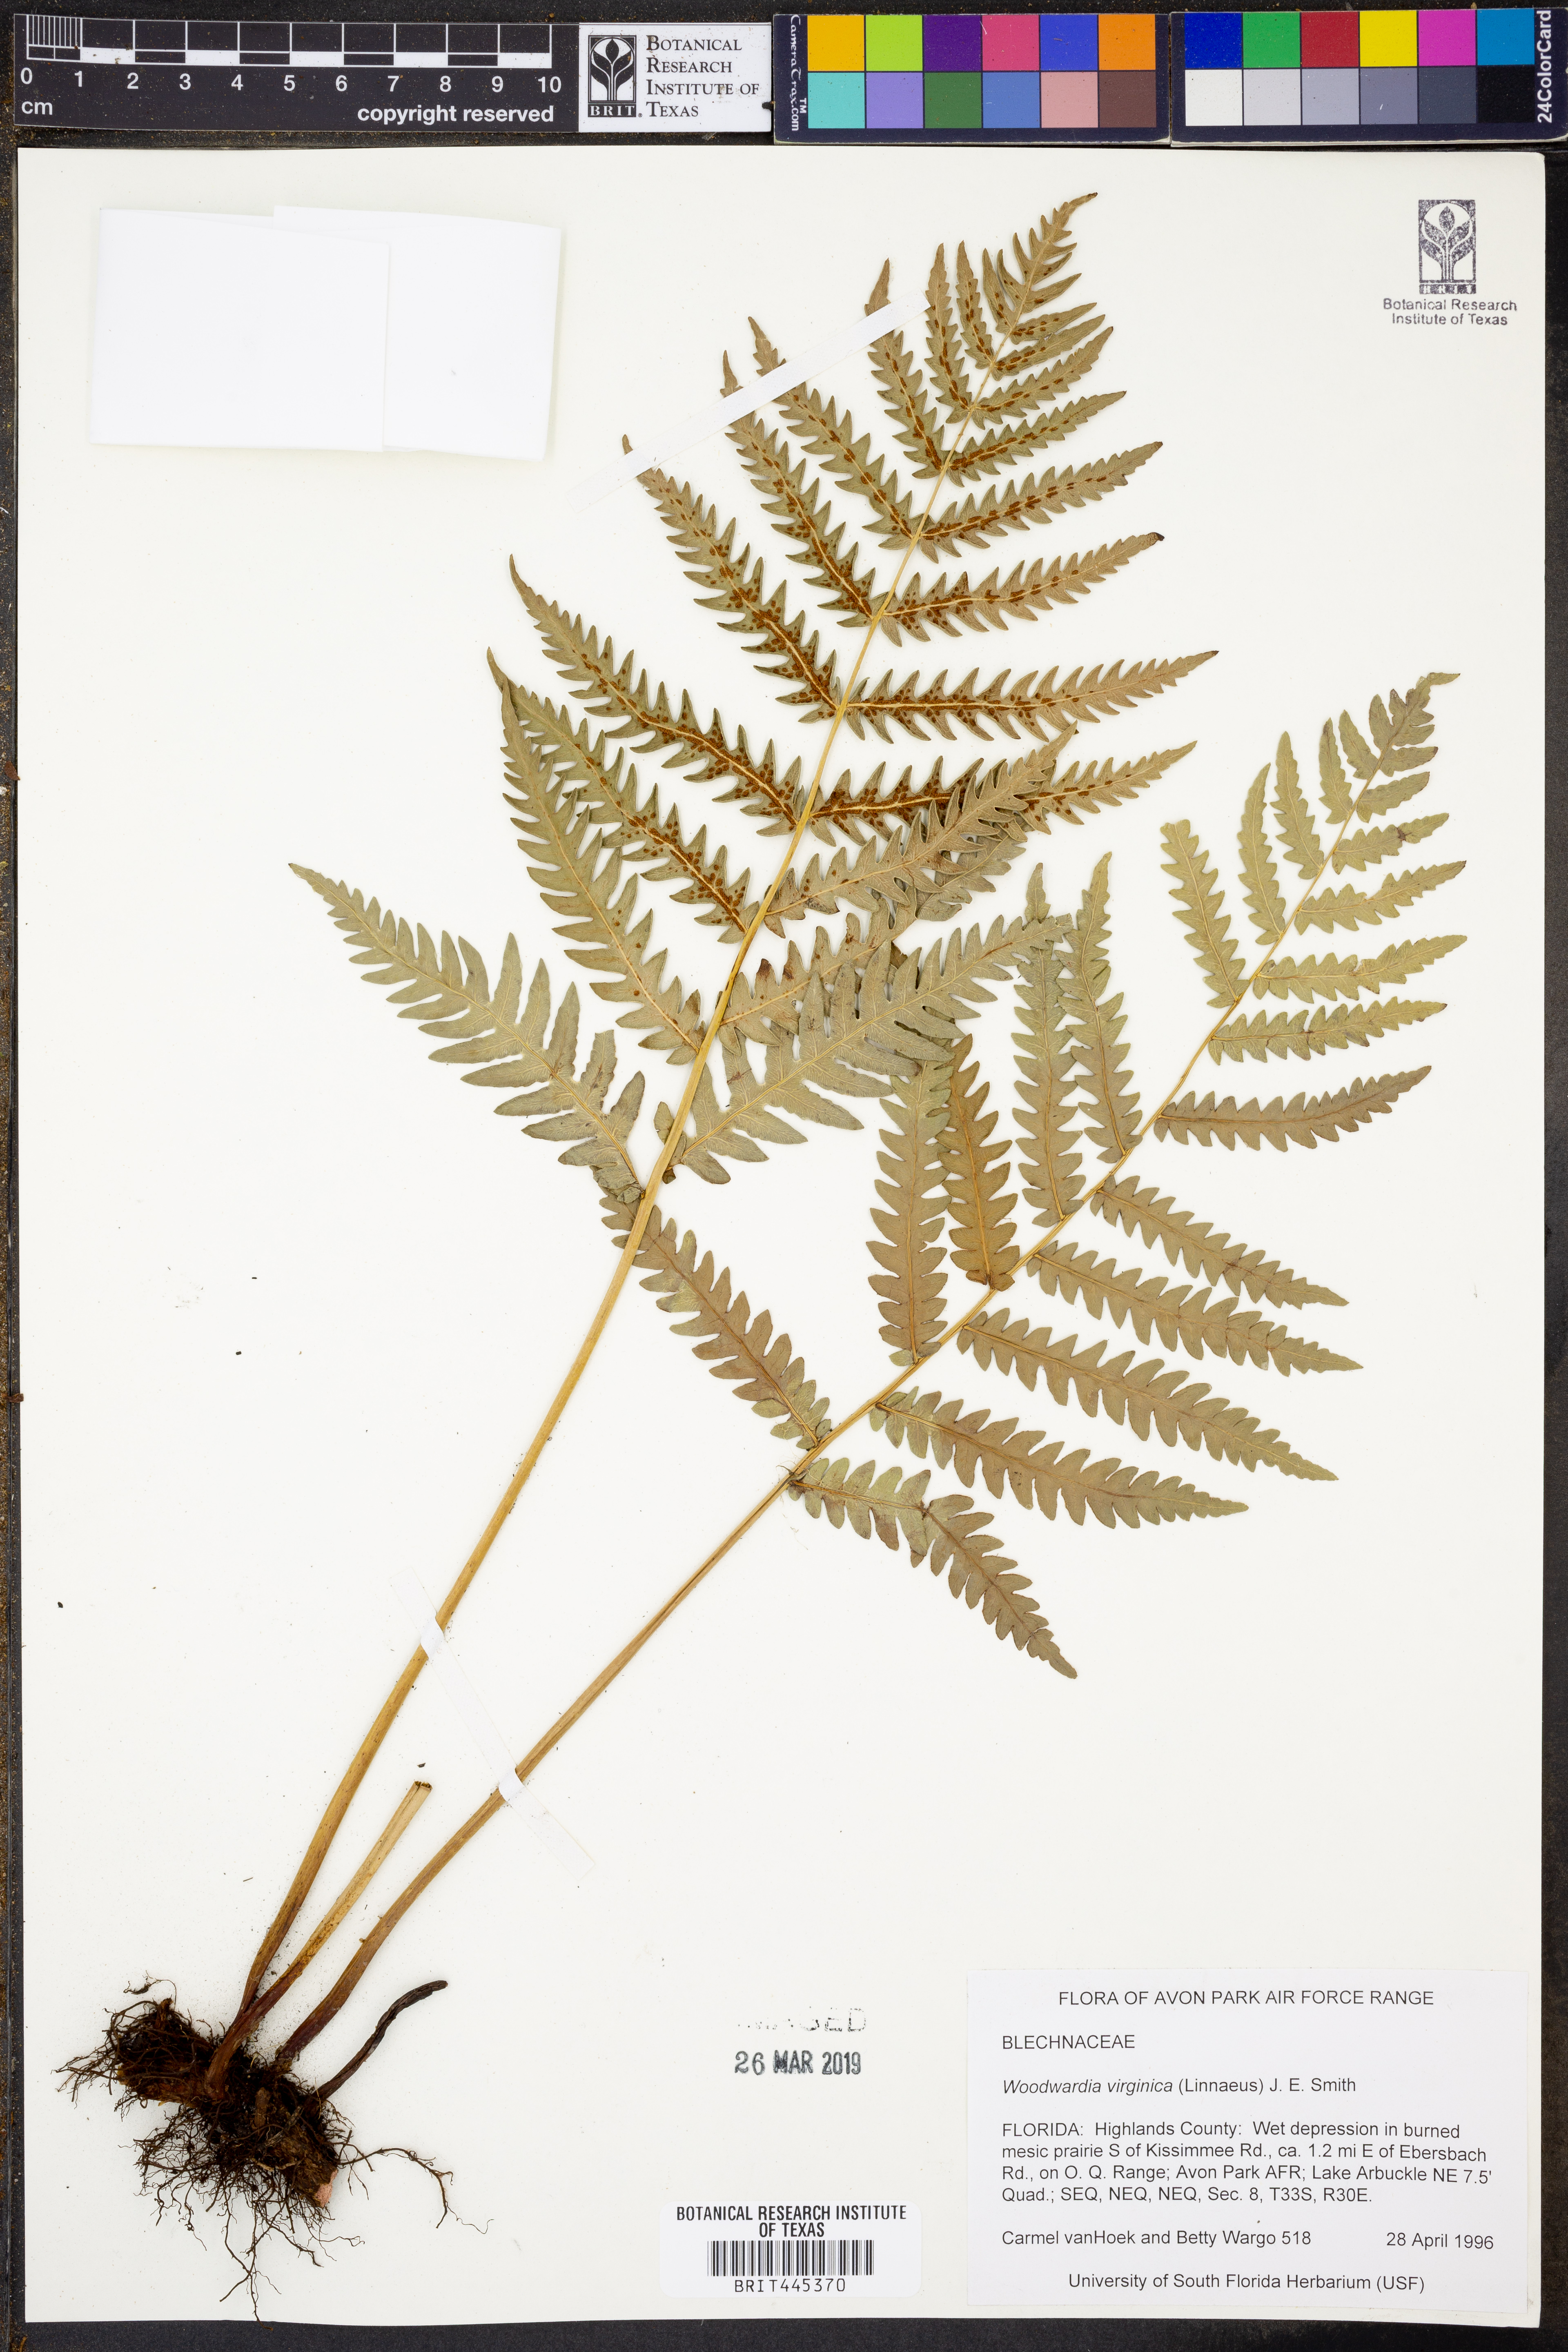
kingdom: Plantae
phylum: Tracheophyta
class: Polypodiopsida
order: Polypodiales
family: Blechnaceae
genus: Anchistea
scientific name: Anchistea virginica
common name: Virginia chain fern
